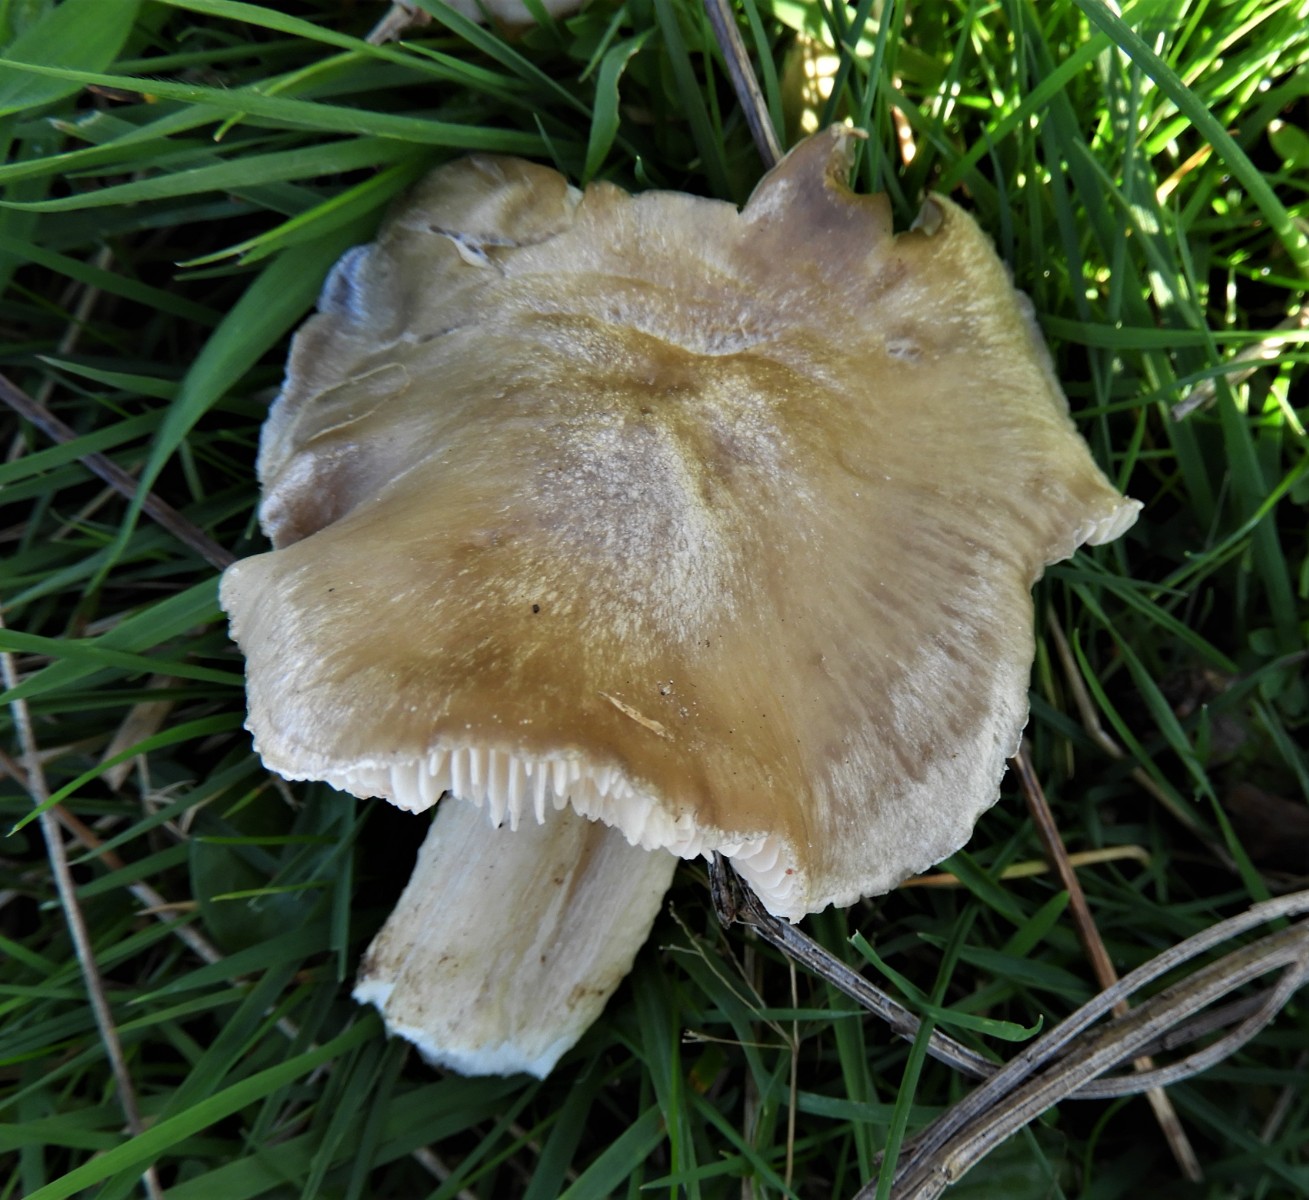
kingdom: Fungi
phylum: Basidiomycota
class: Agaricomycetes
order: Agaricales
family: Entolomataceae
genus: Entoloma
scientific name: Entoloma prunuloides
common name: mel-rødblad
